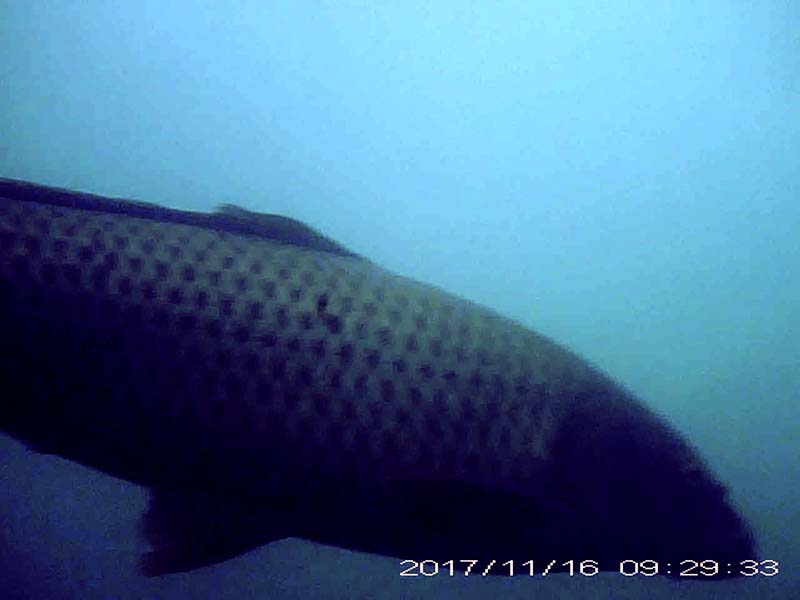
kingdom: Animalia
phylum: Chordata
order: Cypriniformes
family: Cyprinidae
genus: Cyprinus
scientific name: Cyprinus carpio
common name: コイ
